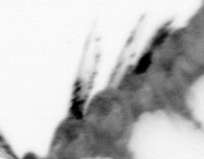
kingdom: Animalia
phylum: Annelida
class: Polychaeta
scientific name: Polychaeta
